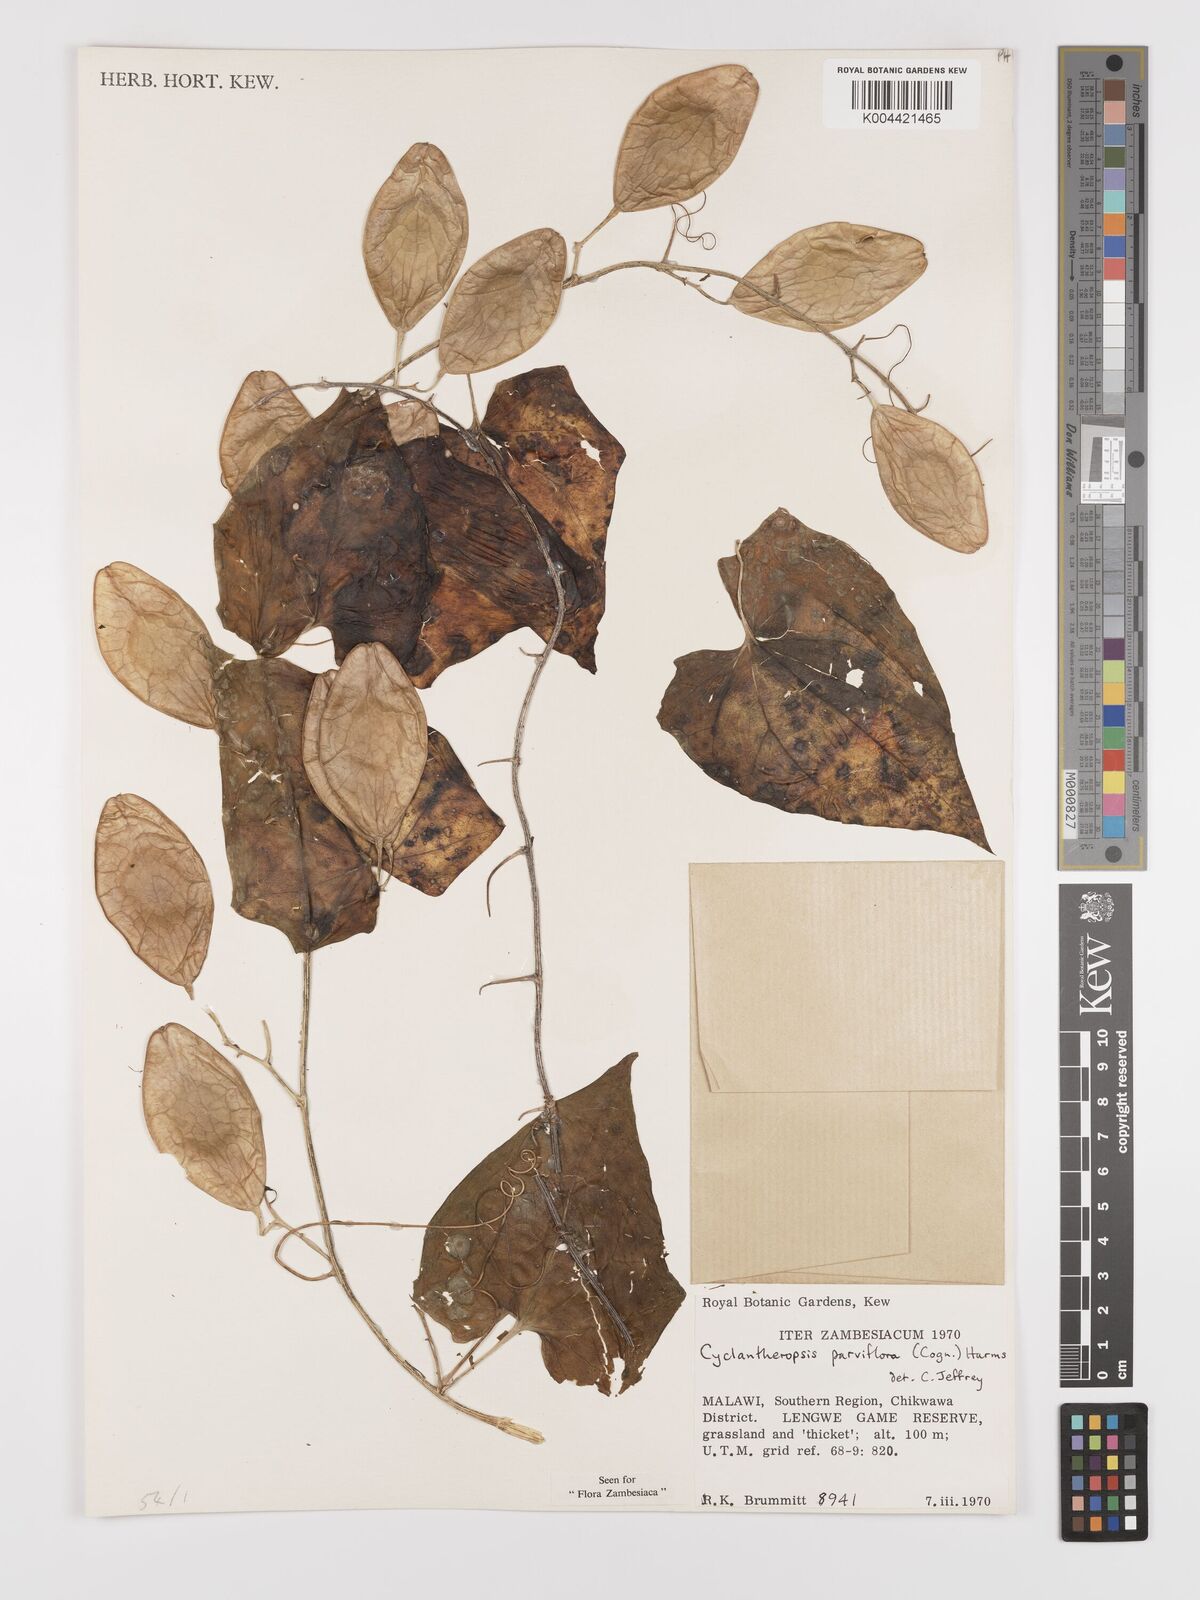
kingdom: Plantae
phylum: Tracheophyta
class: Magnoliopsida
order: Cucurbitales
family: Cucurbitaceae
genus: Cyclantheropsis
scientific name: Cyclantheropsis parviflora
